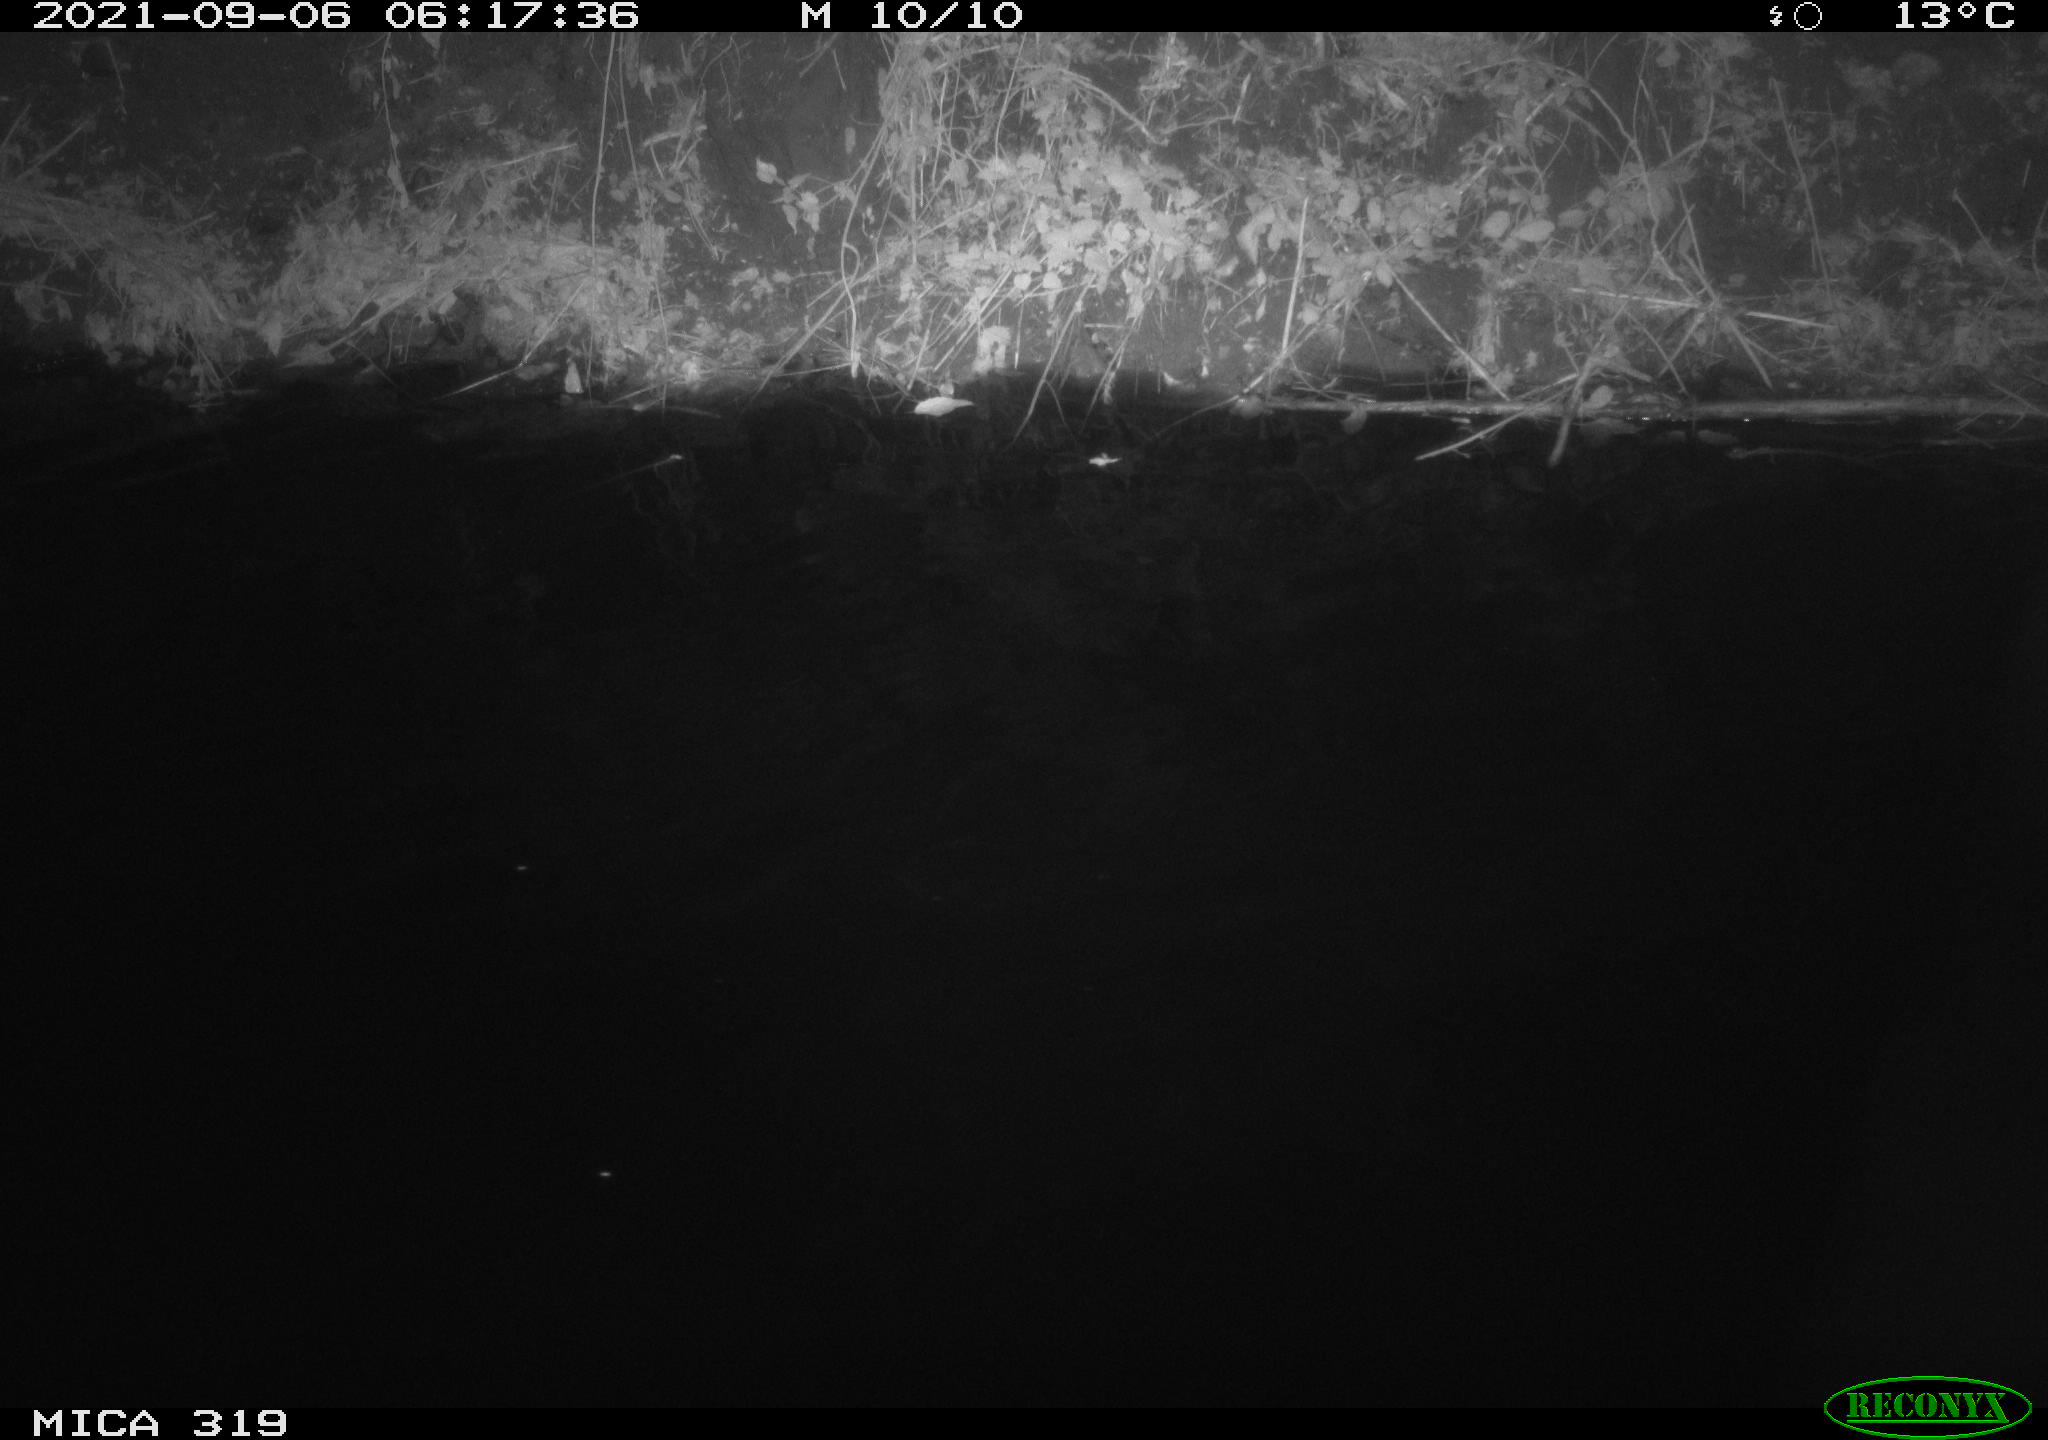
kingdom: Animalia
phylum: Chordata
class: Aves
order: Anseriformes
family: Anatidae
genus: Anas
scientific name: Anas platyrhynchos
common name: Mallard
